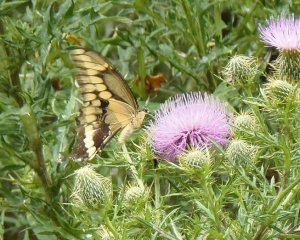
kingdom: Animalia
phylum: Arthropoda
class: Insecta
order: Lepidoptera
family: Papilionidae
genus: Papilio
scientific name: Papilio cresphontes
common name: Eastern Giant Swallowtail
